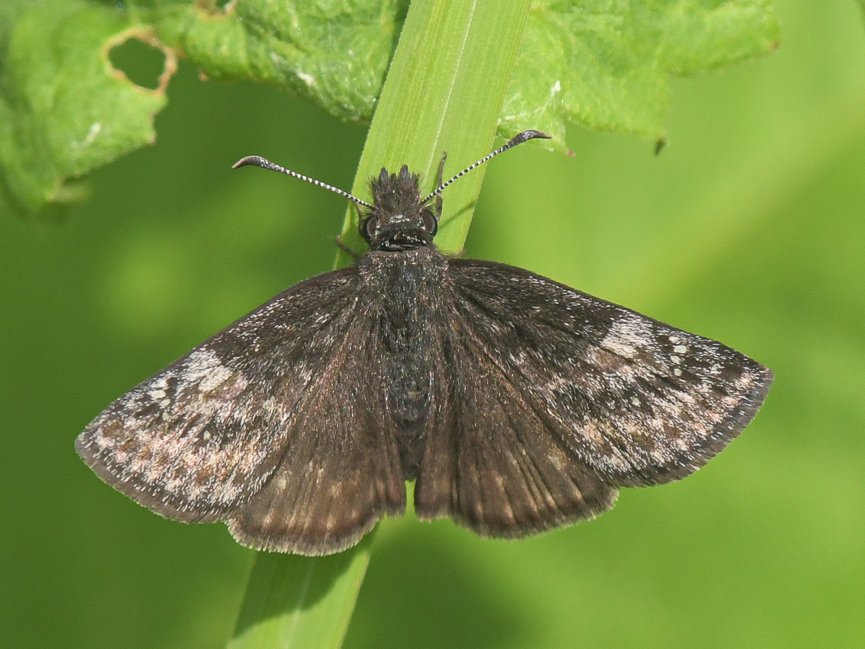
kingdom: Animalia
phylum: Arthropoda
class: Insecta
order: Lepidoptera
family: Hesperiidae
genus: Gesta
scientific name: Gesta
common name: Persius Duskywing
